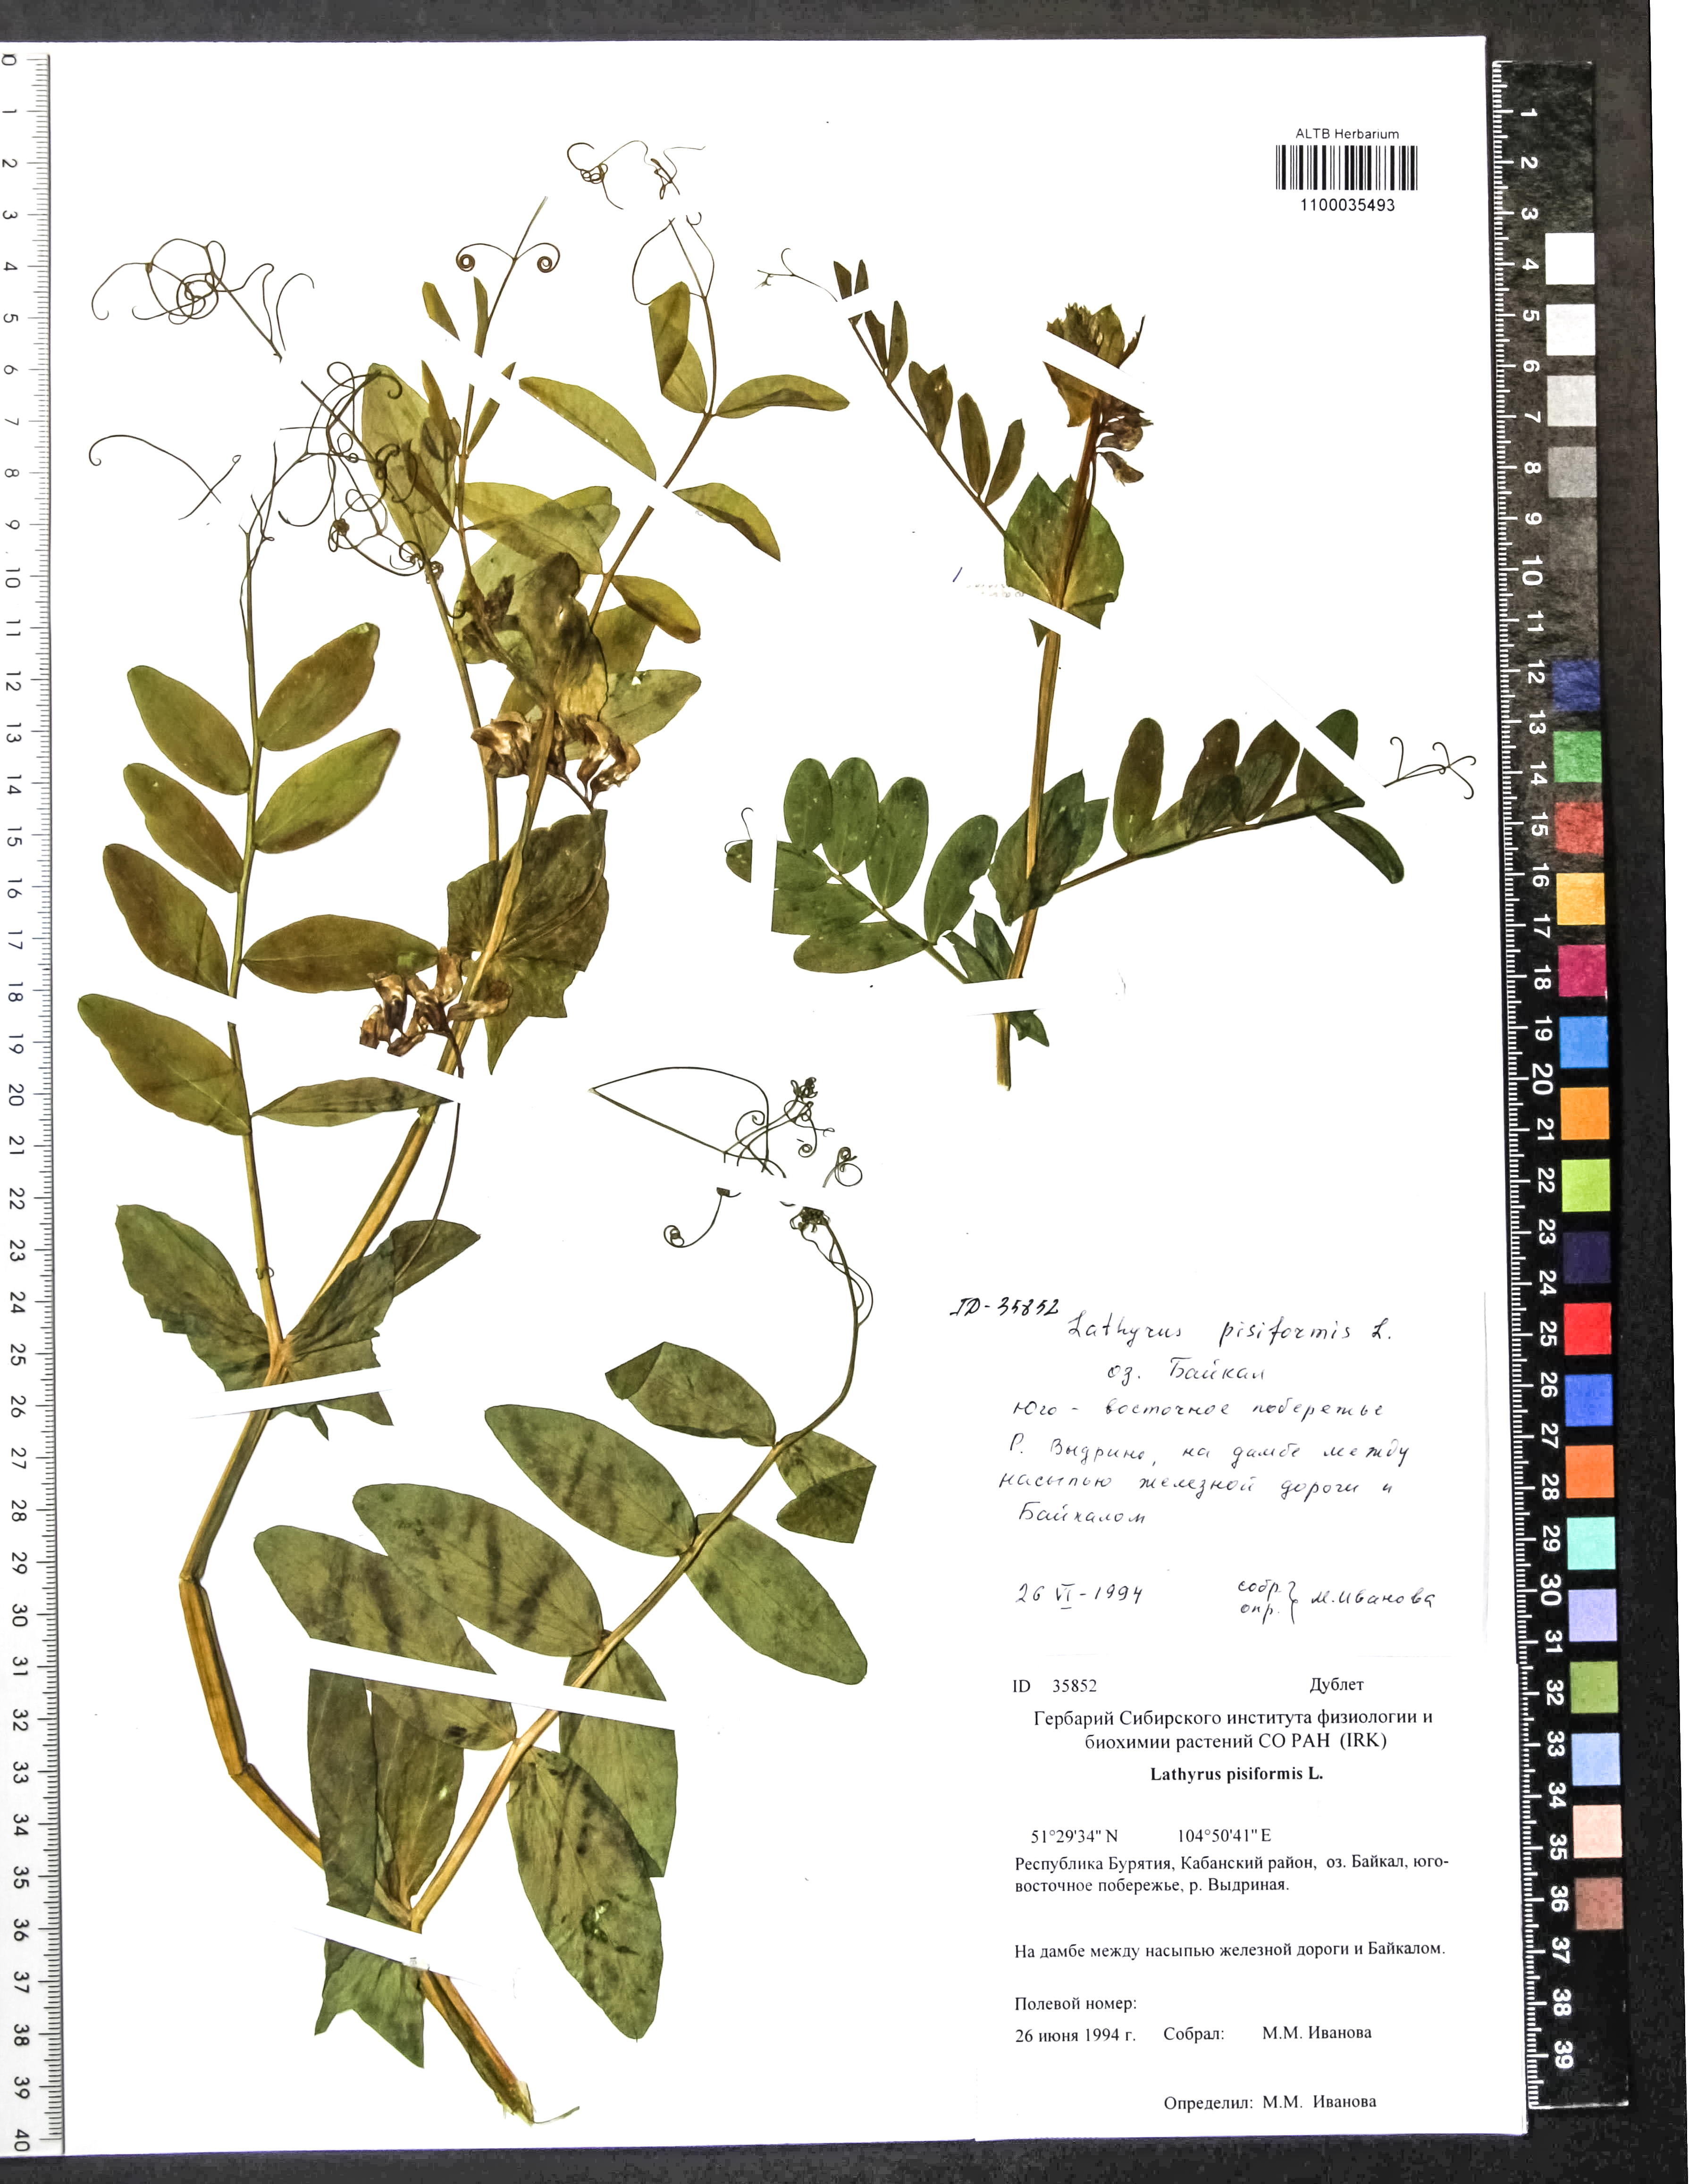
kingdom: Plantae
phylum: Tracheophyta
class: Magnoliopsida
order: Fabales
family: Fabaceae
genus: Lathyrus
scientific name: Lathyrus pisiformis
